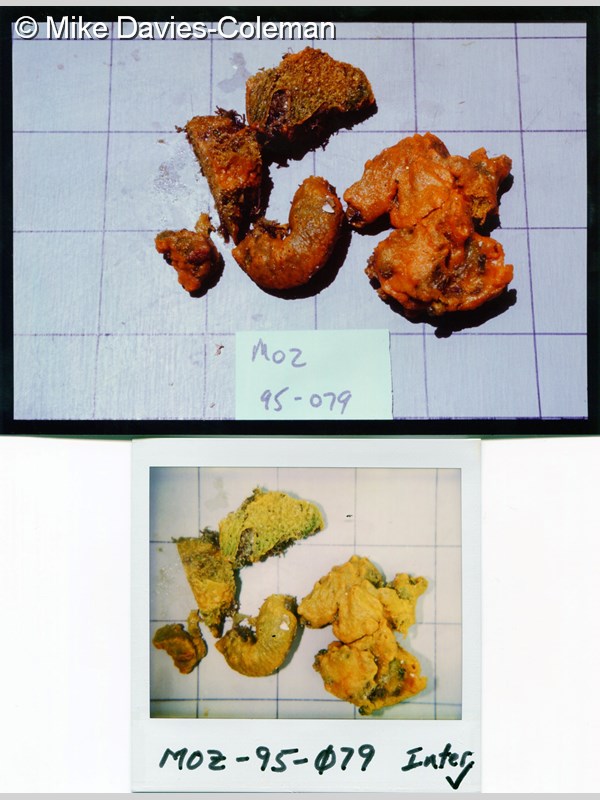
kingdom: Animalia
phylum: Porifera
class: Demospongiae
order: Axinellida
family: Axinellidae
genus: Axinella
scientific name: Axinella
